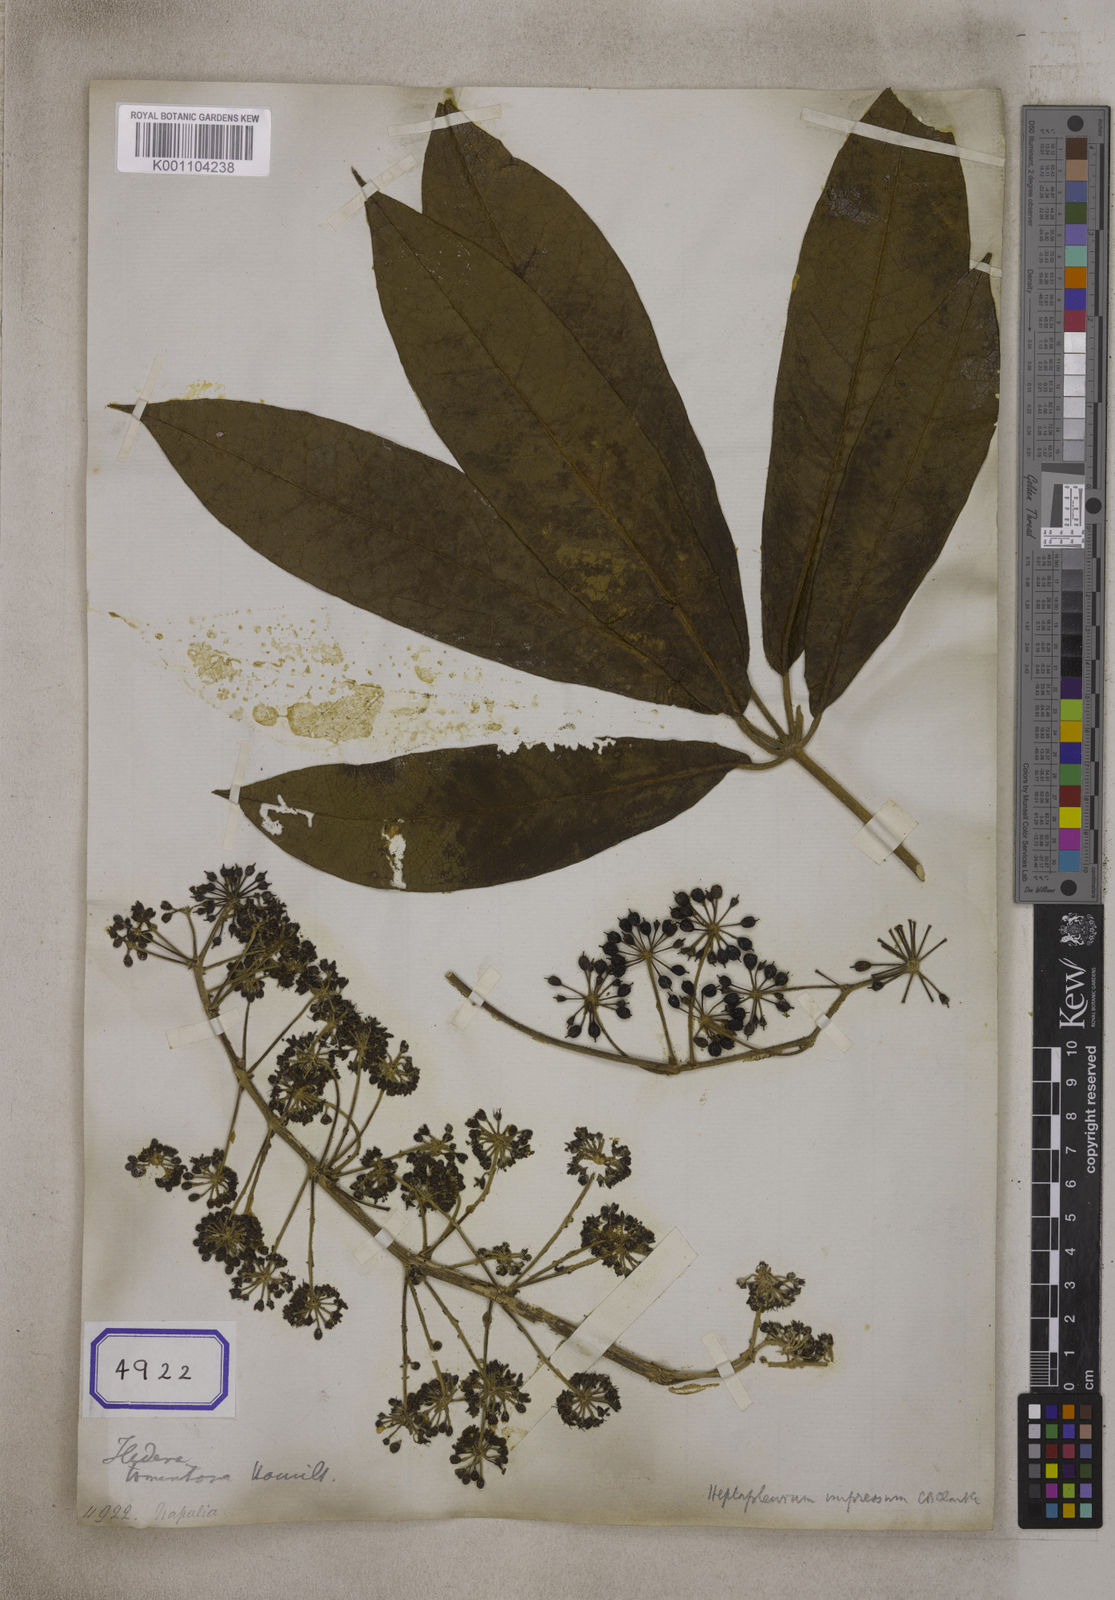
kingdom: Plantae
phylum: Tracheophyta
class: Magnoliopsida
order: Apiales
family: Araliaceae
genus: Heptapleurum
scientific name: Heptapleurum rhododendrifolium
